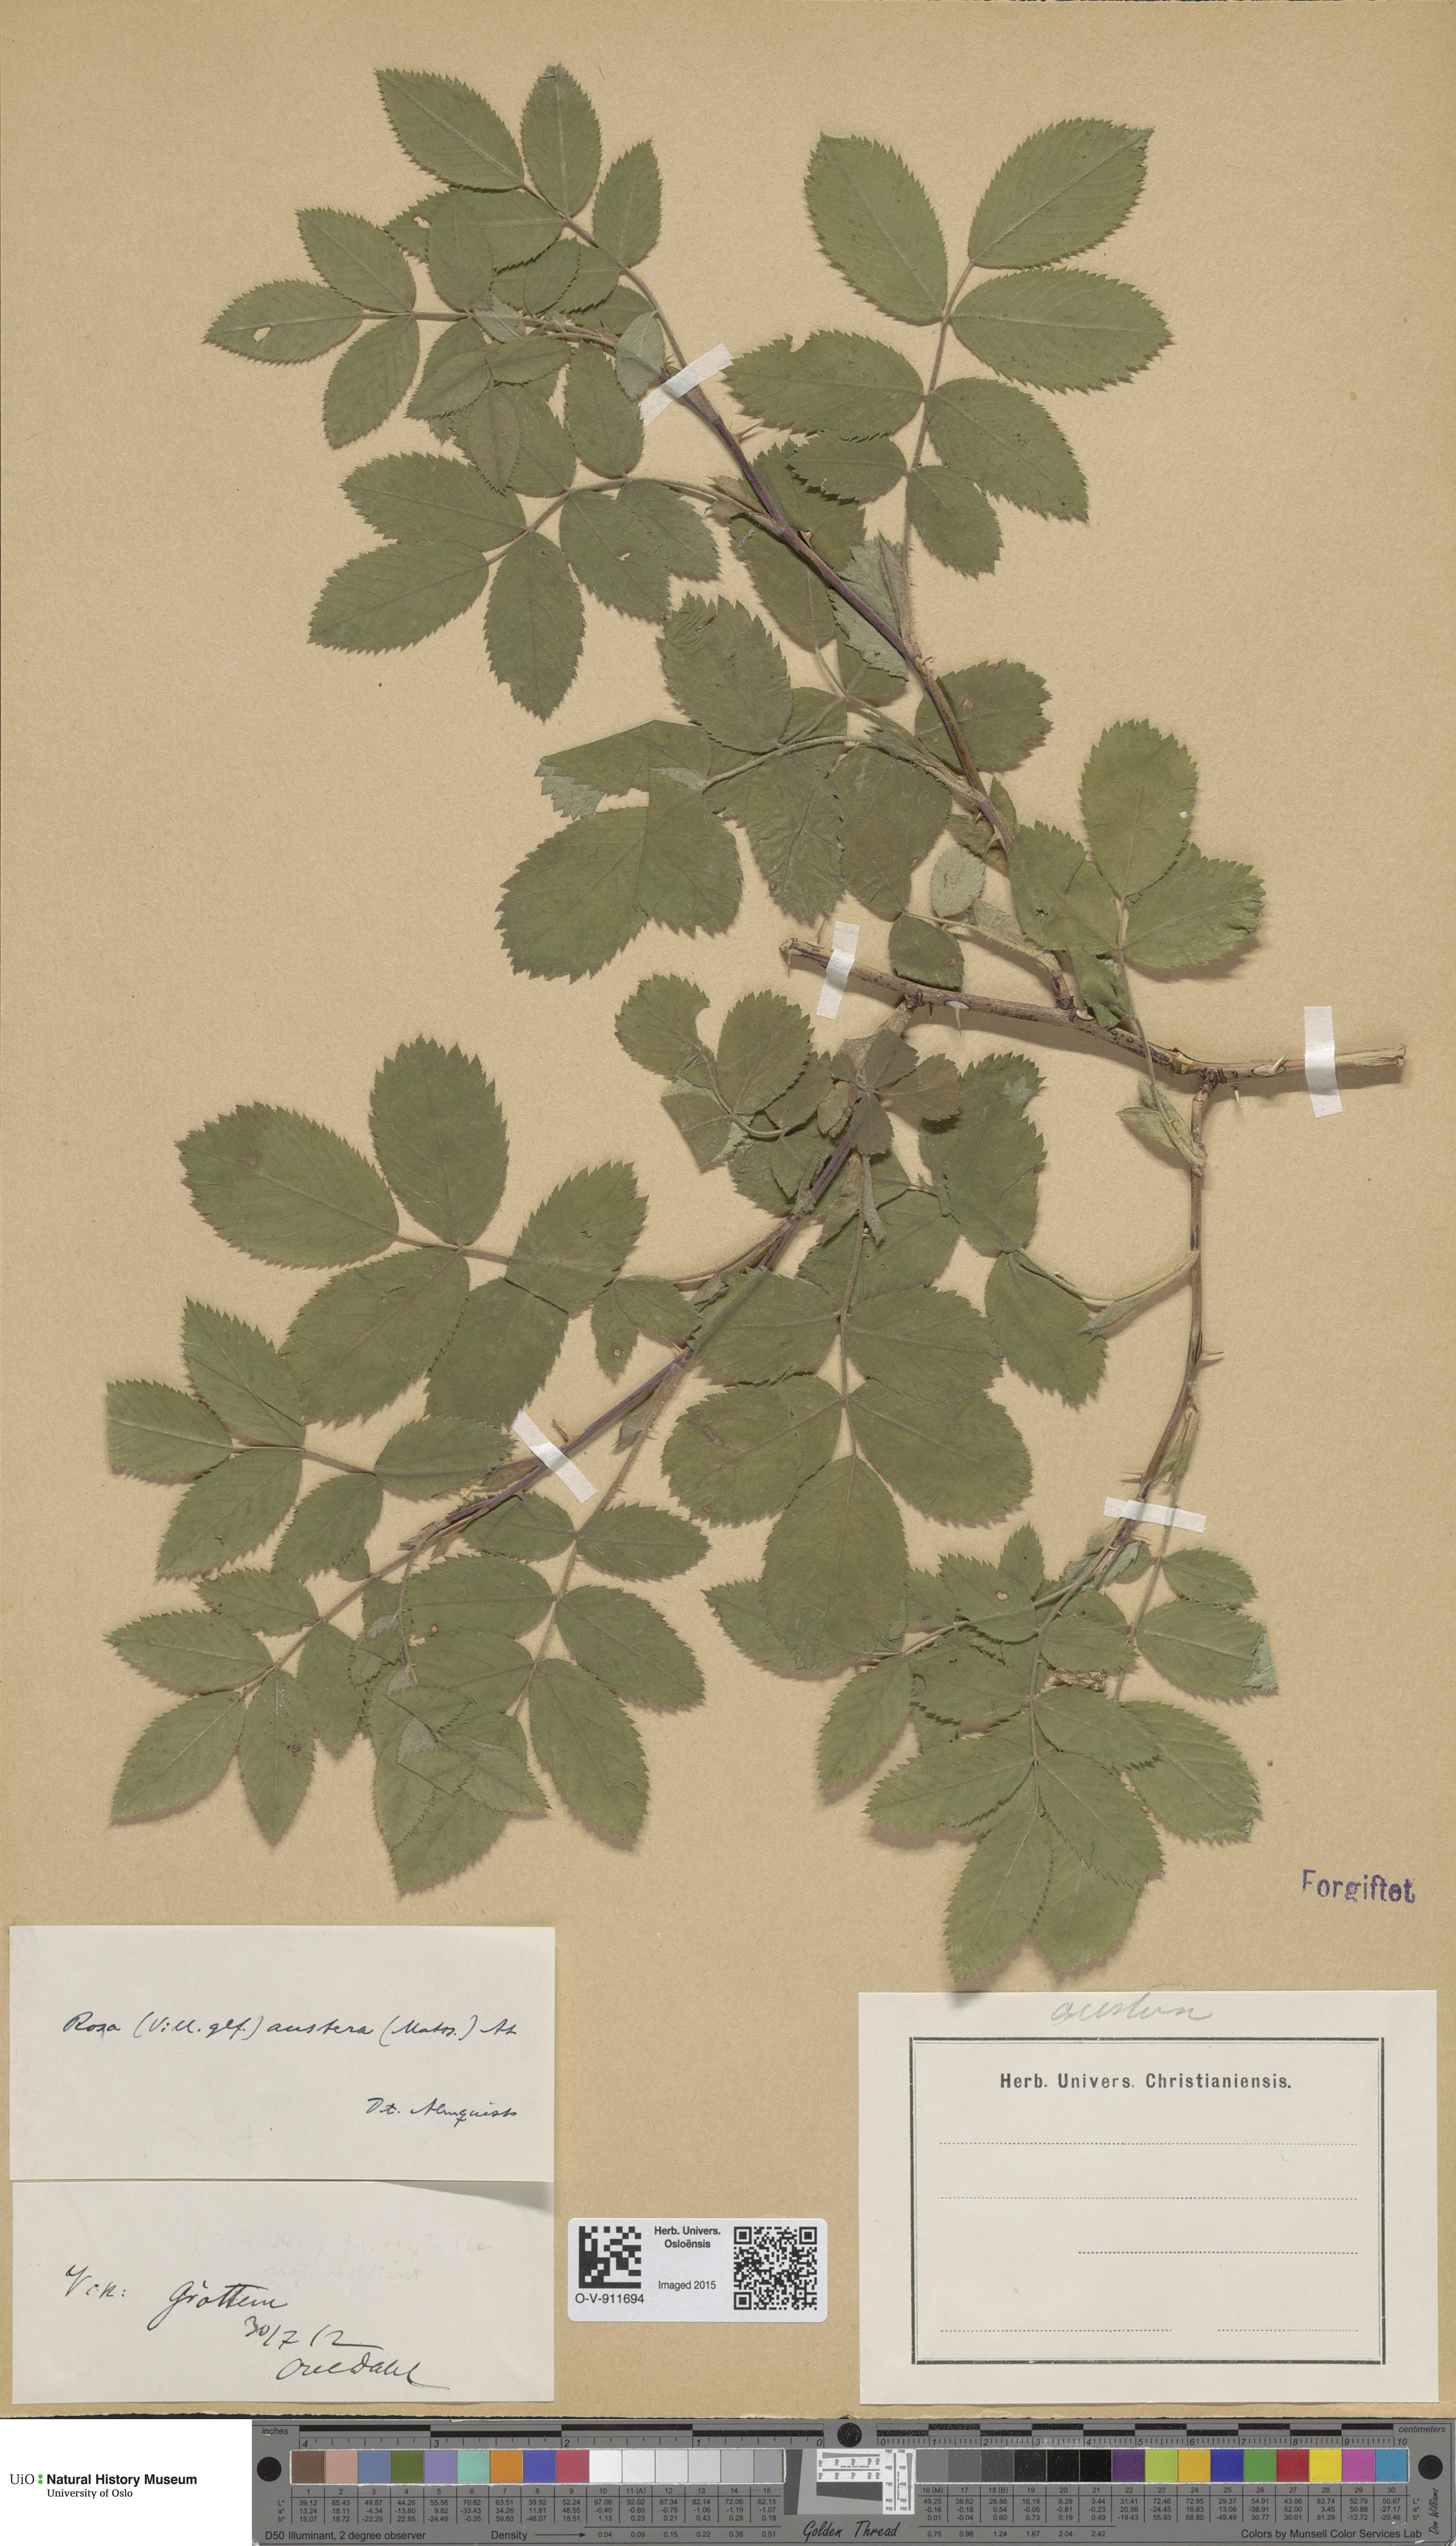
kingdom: Plantae
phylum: Tracheophyta
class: Magnoliopsida
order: Rosales
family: Rosaceae
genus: Rosa
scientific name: Rosa mollis
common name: Rose
